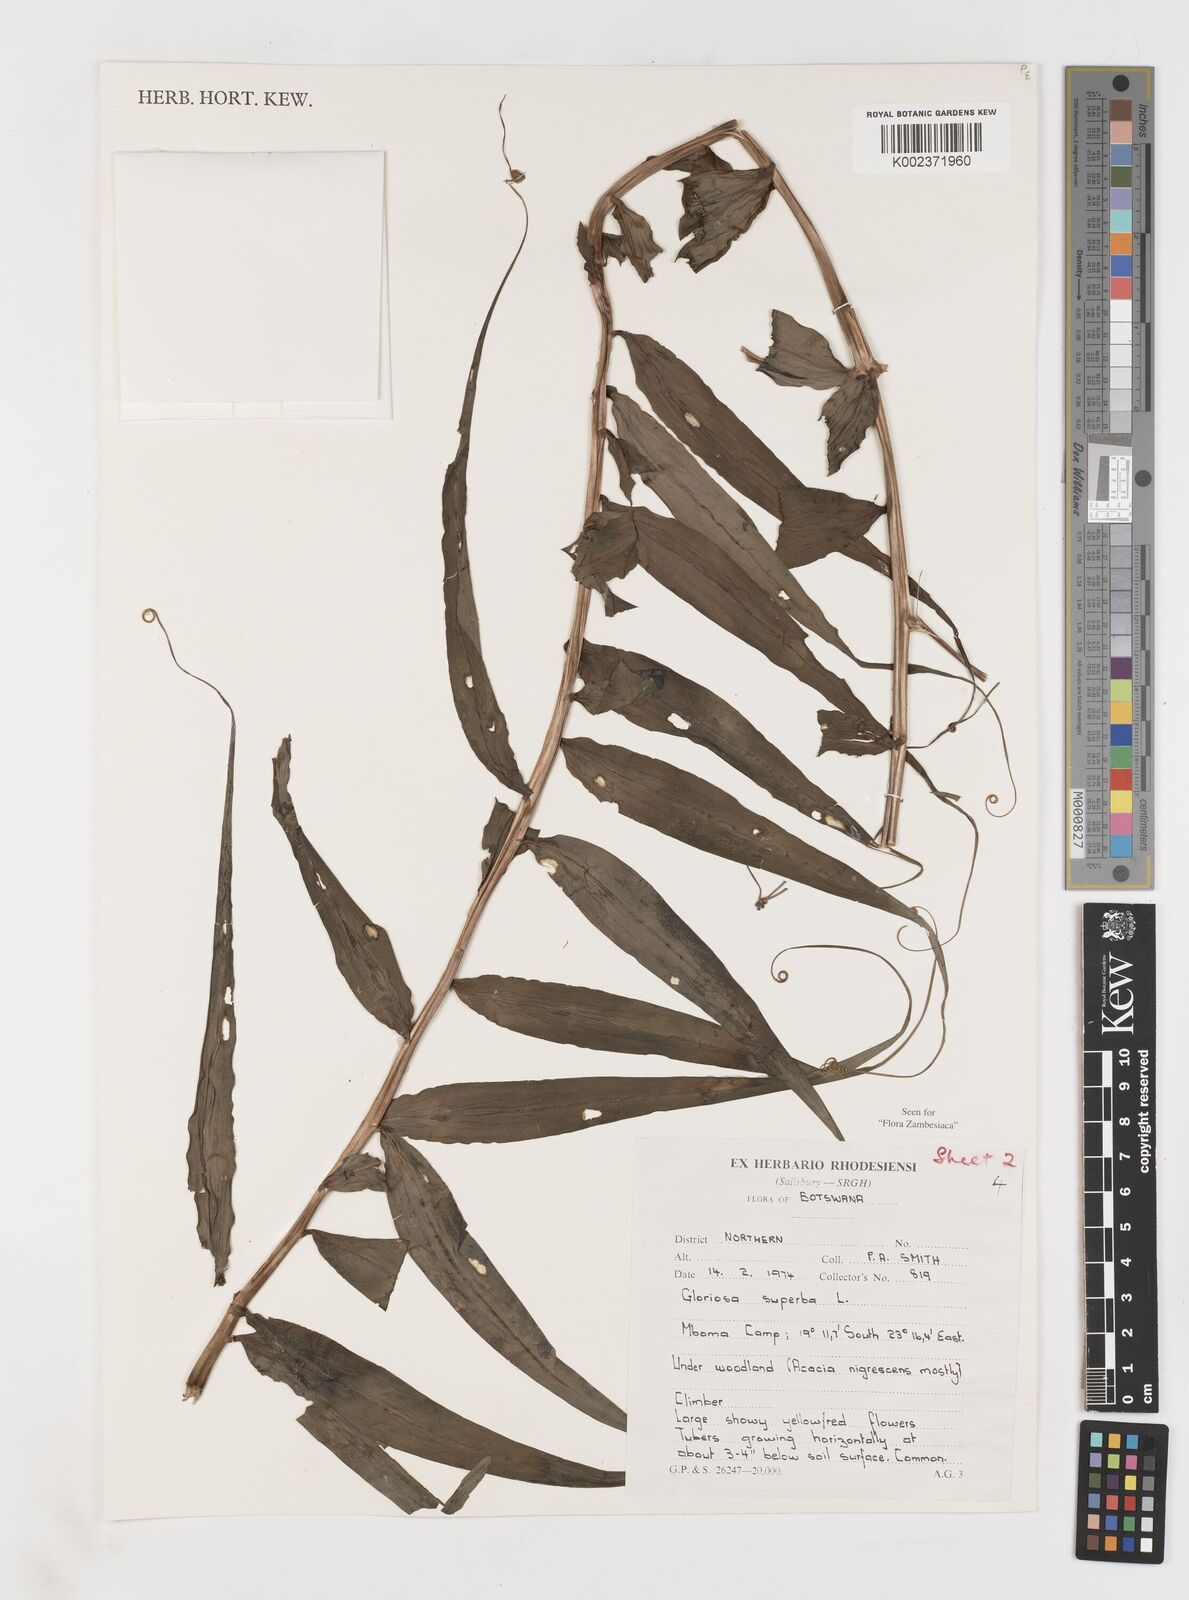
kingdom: Plantae
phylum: Tracheophyta
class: Liliopsida
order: Liliales
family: Colchicaceae
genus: Gloriosa
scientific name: Gloriosa simplex
